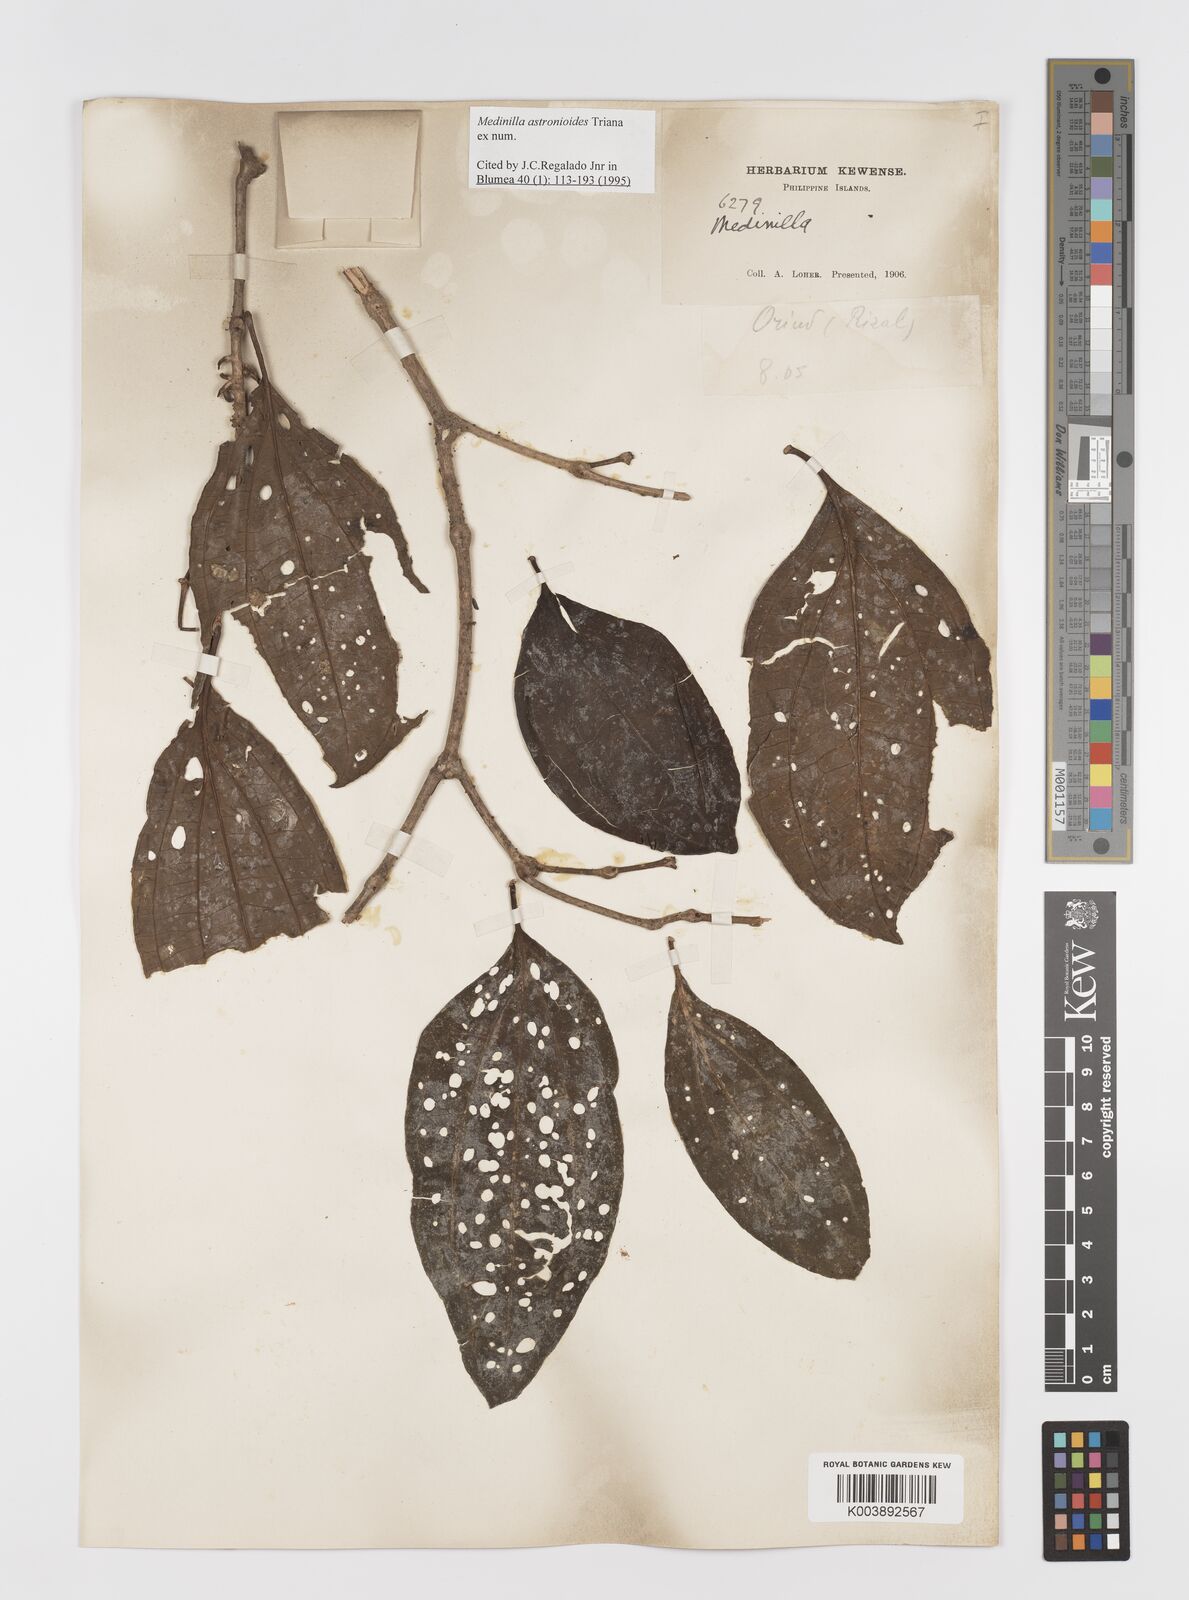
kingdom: Plantae
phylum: Tracheophyta
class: Magnoliopsida
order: Myrtales
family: Melastomataceae
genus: Medinilla
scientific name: Medinilla astronioides
